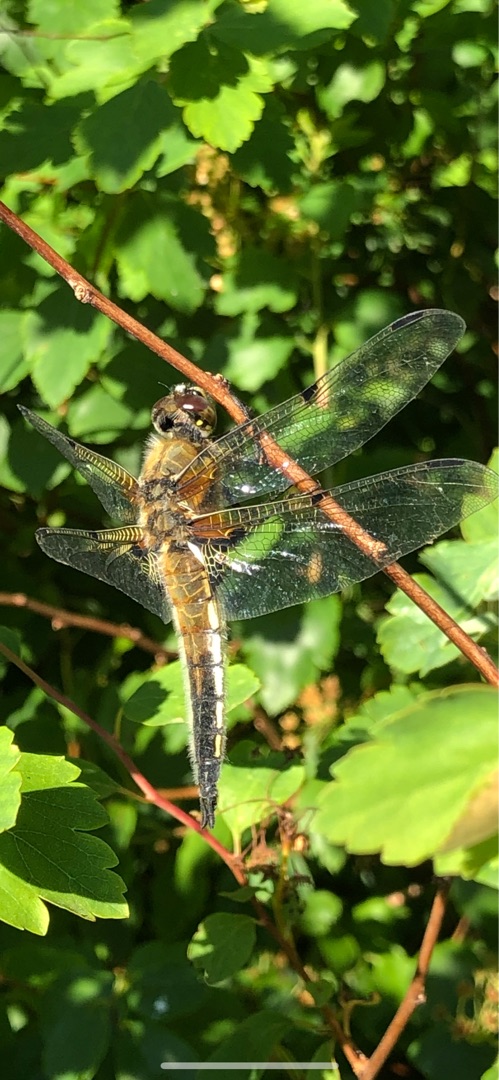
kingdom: Animalia
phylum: Arthropoda
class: Insecta
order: Odonata
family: Libellulidae
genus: Libellula
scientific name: Libellula quadrimaculata
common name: Fireplettet libel
